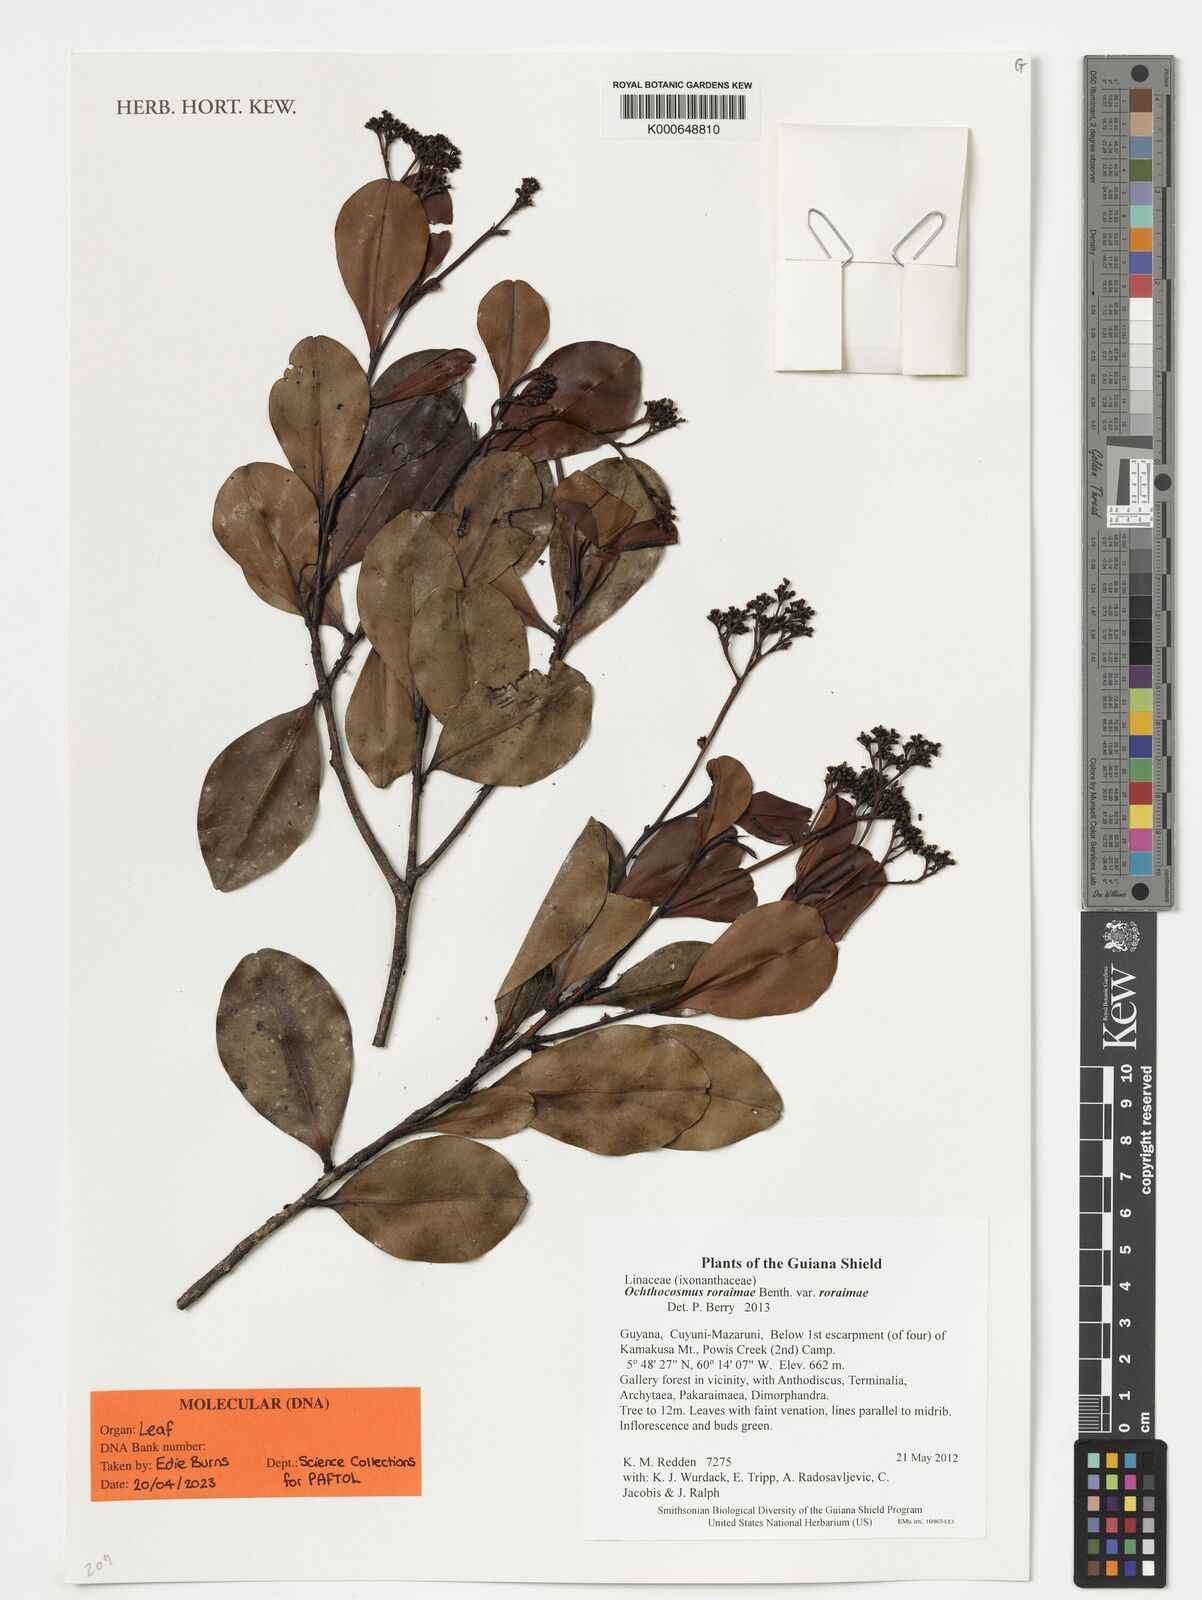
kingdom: Plantae
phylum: Tracheophyta
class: Magnoliopsida
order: Malpighiales
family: Ixonanthaceae
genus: Ochthocosmus
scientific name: Ochthocosmus roraimae
